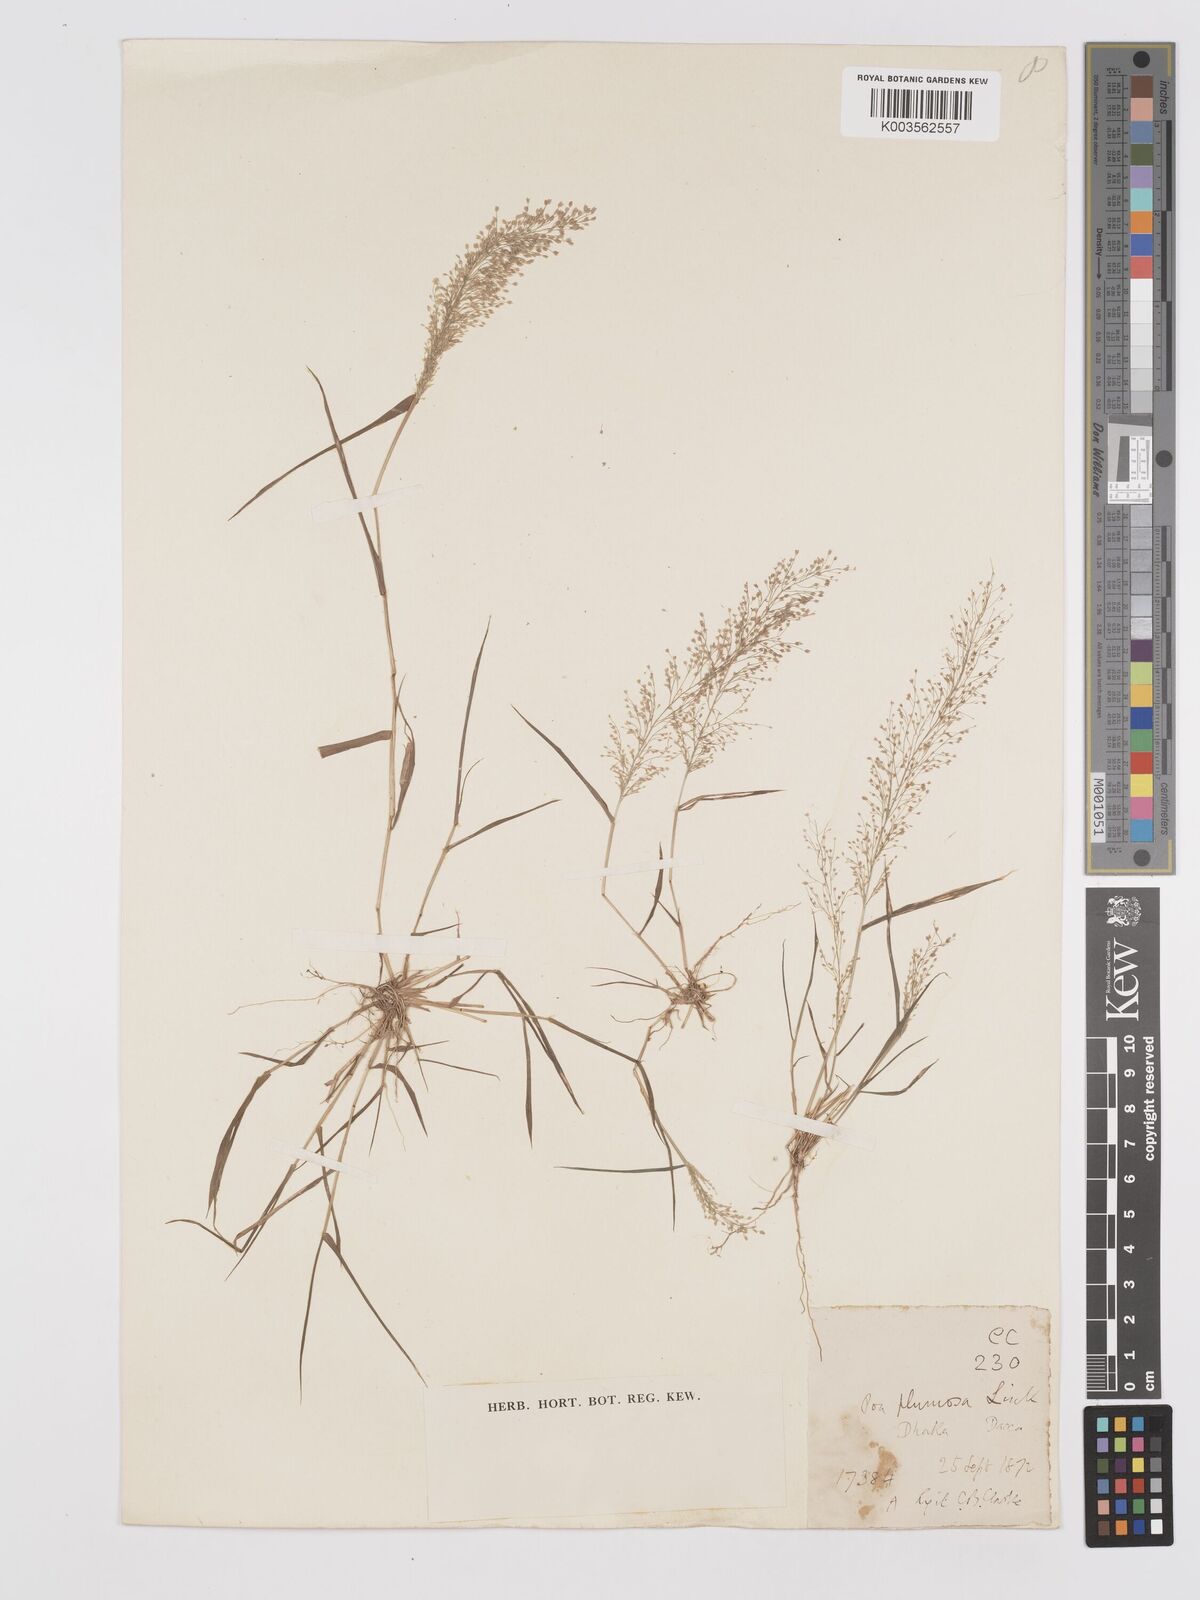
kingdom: Plantae
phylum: Tracheophyta
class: Liliopsida
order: Poales
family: Poaceae
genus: Eragrostis
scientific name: Eragrostis tenella
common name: Japanese lovegrass
